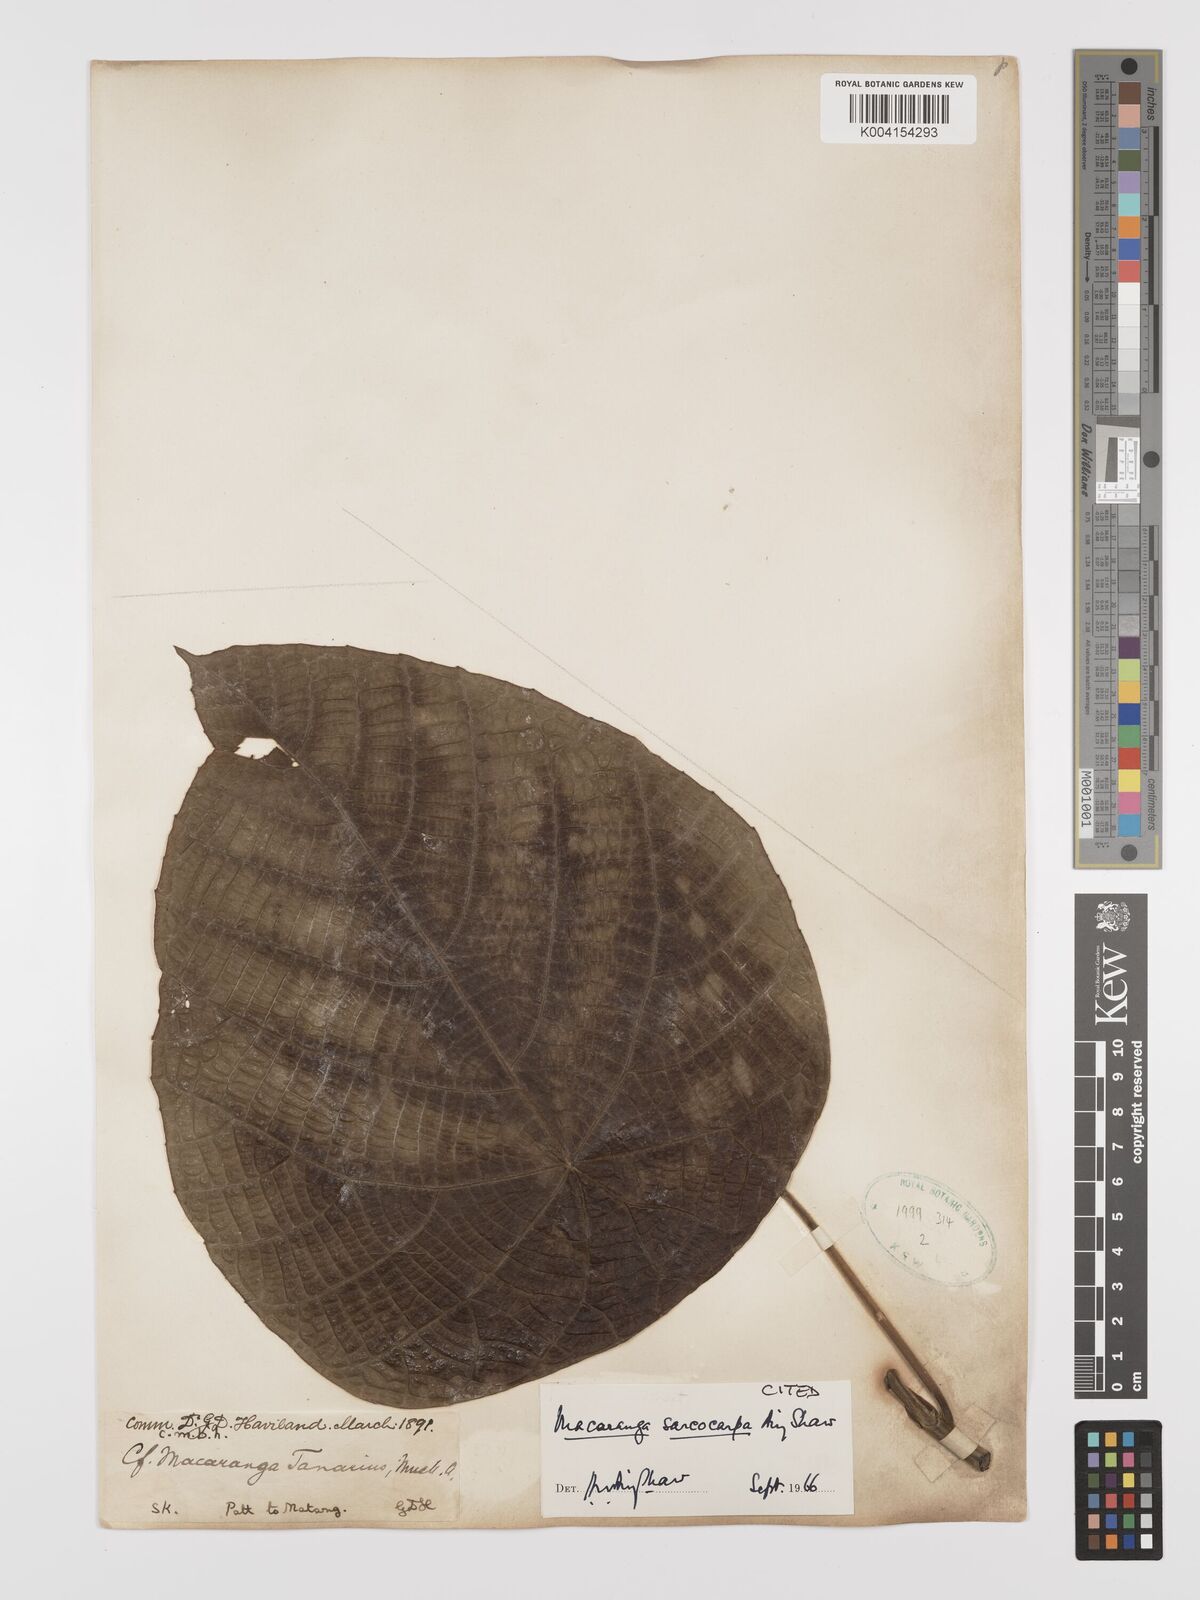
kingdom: Plantae
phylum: Tracheophyta
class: Magnoliopsida
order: Malpighiales
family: Euphorbiaceae
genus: Macaranga
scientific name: Macaranga sarcocarpa
